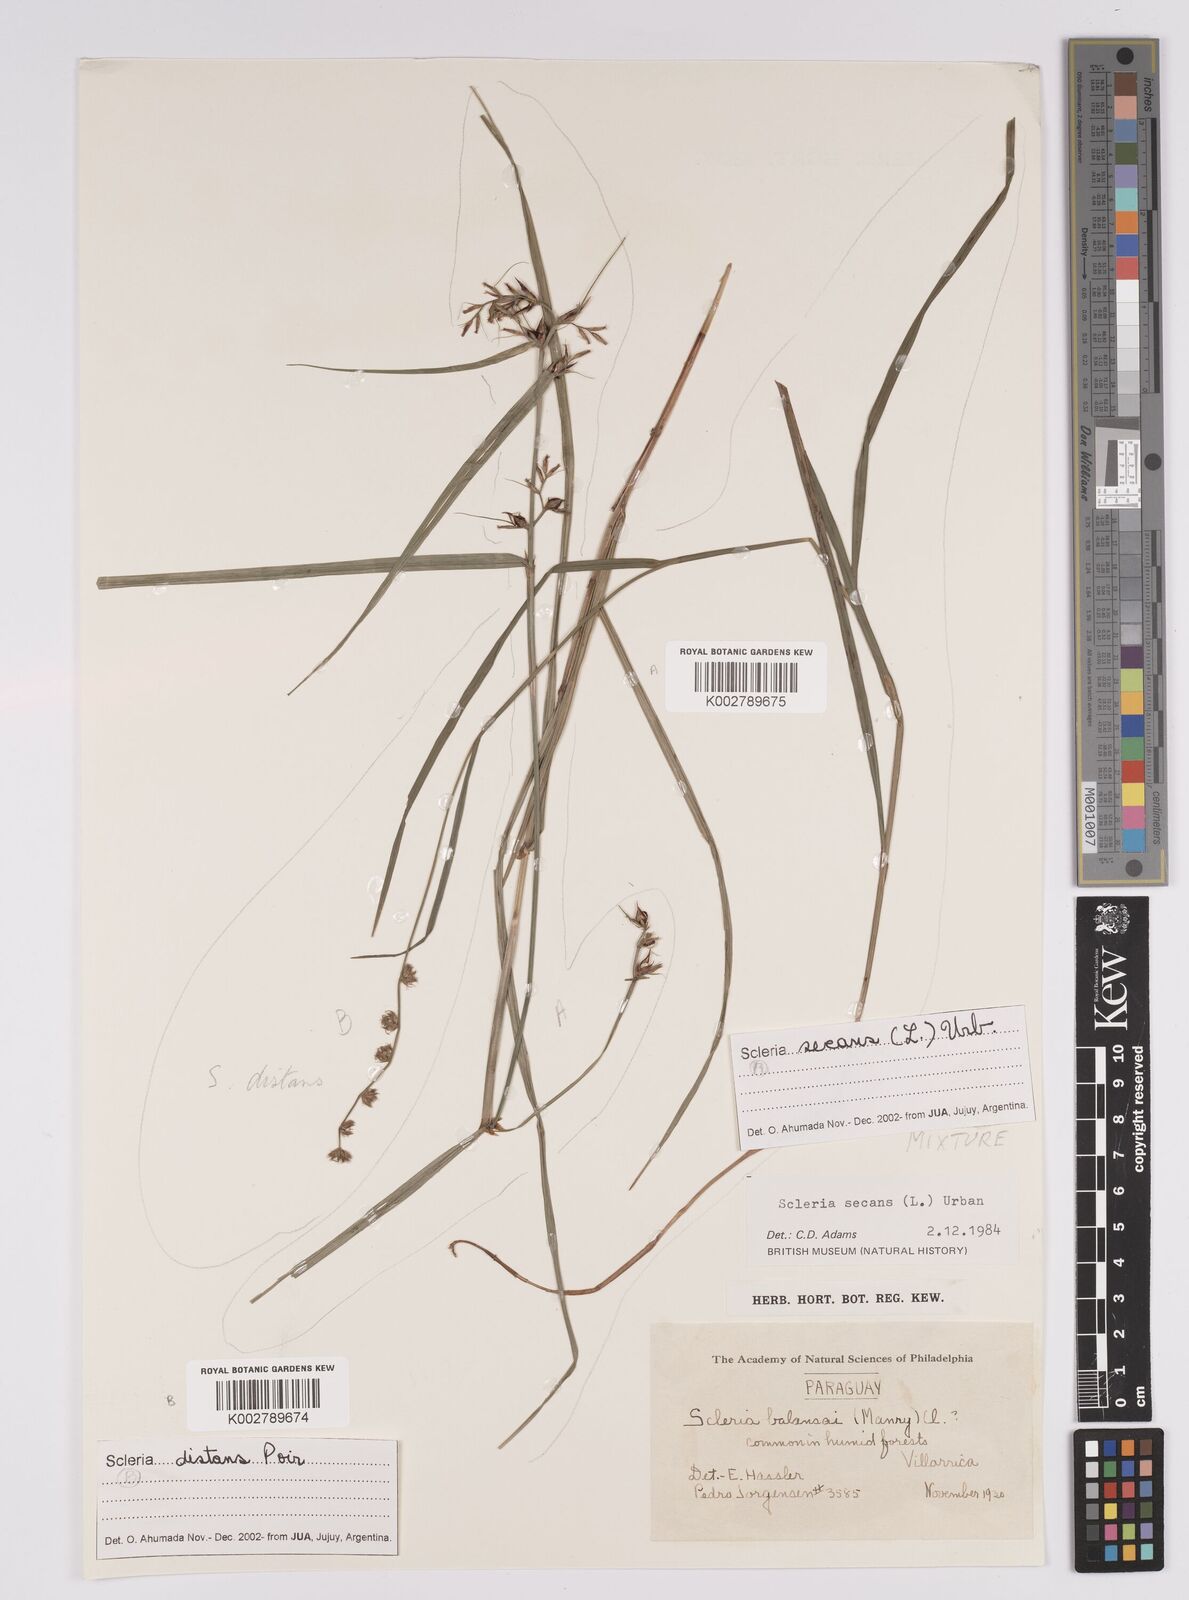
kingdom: Plantae
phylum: Tracheophyta
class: Liliopsida
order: Poales
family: Cyperaceae
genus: Scleria
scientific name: Scleria secans
